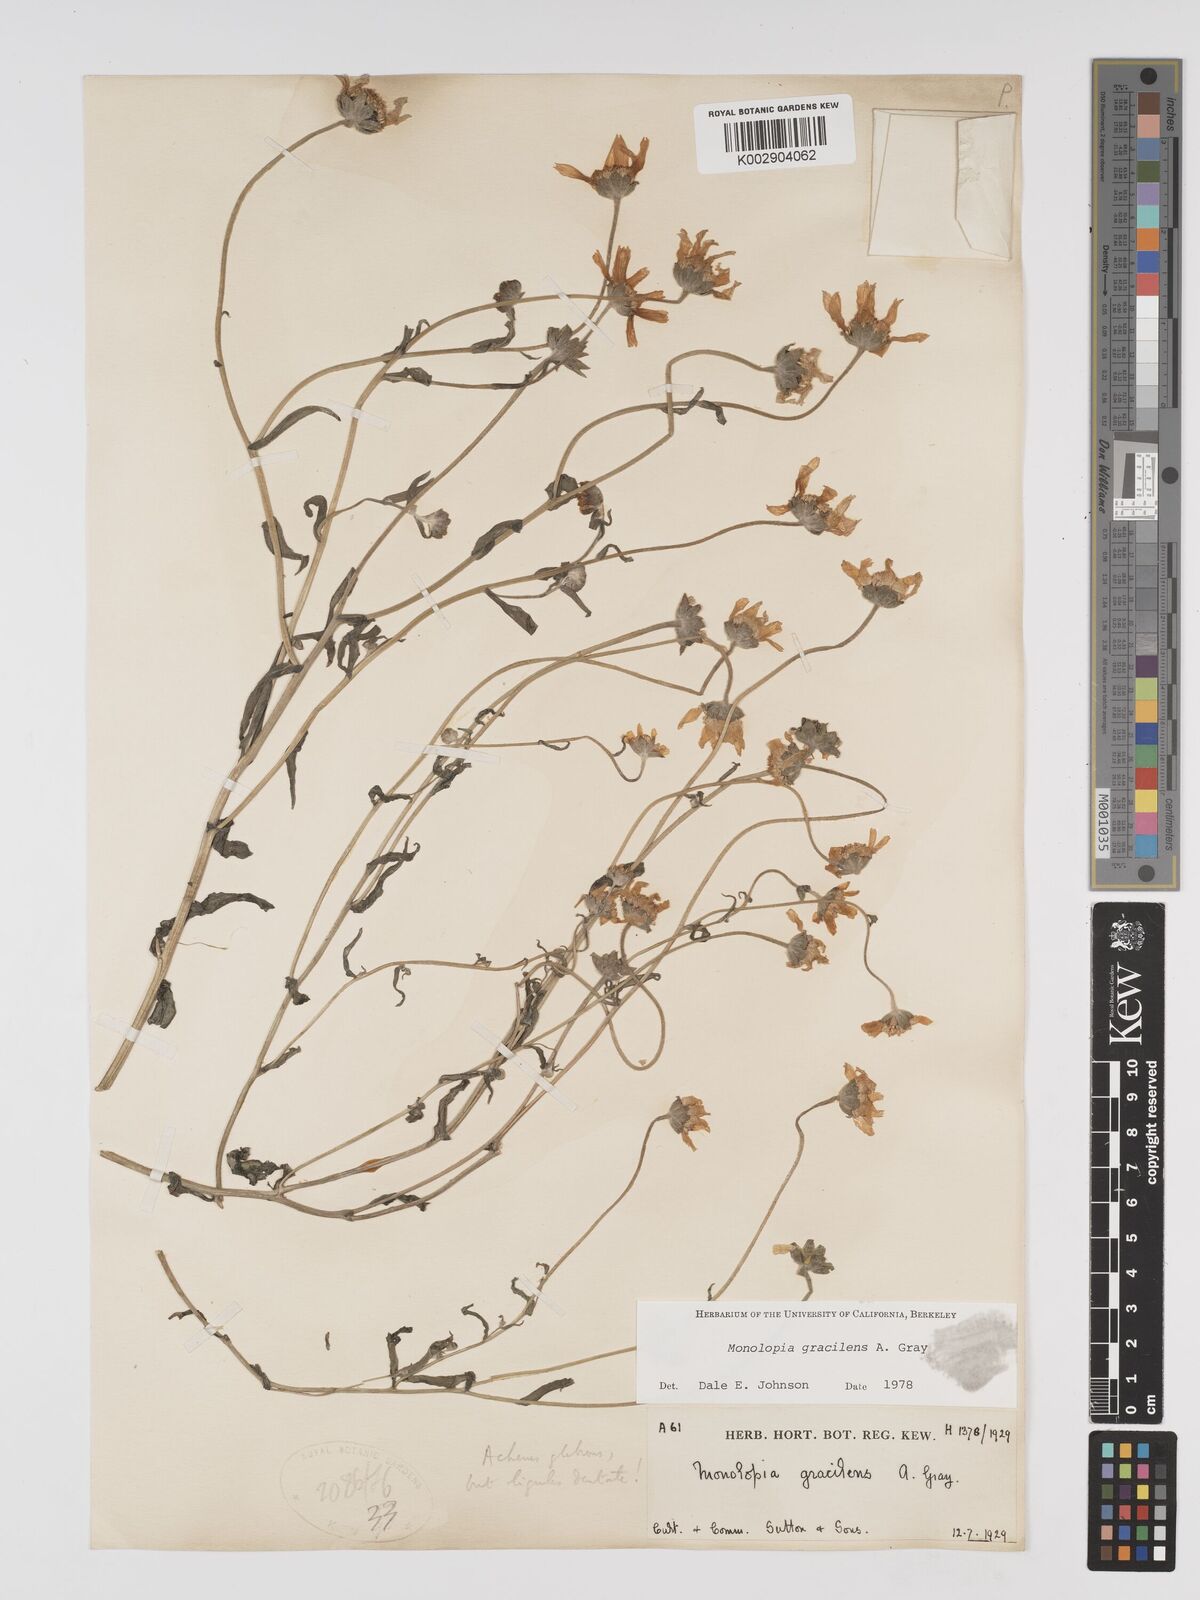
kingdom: Plantae
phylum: Tracheophyta
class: Magnoliopsida
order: Asterales
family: Asteraceae
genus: Monolopia
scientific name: Monolopia gracilens
